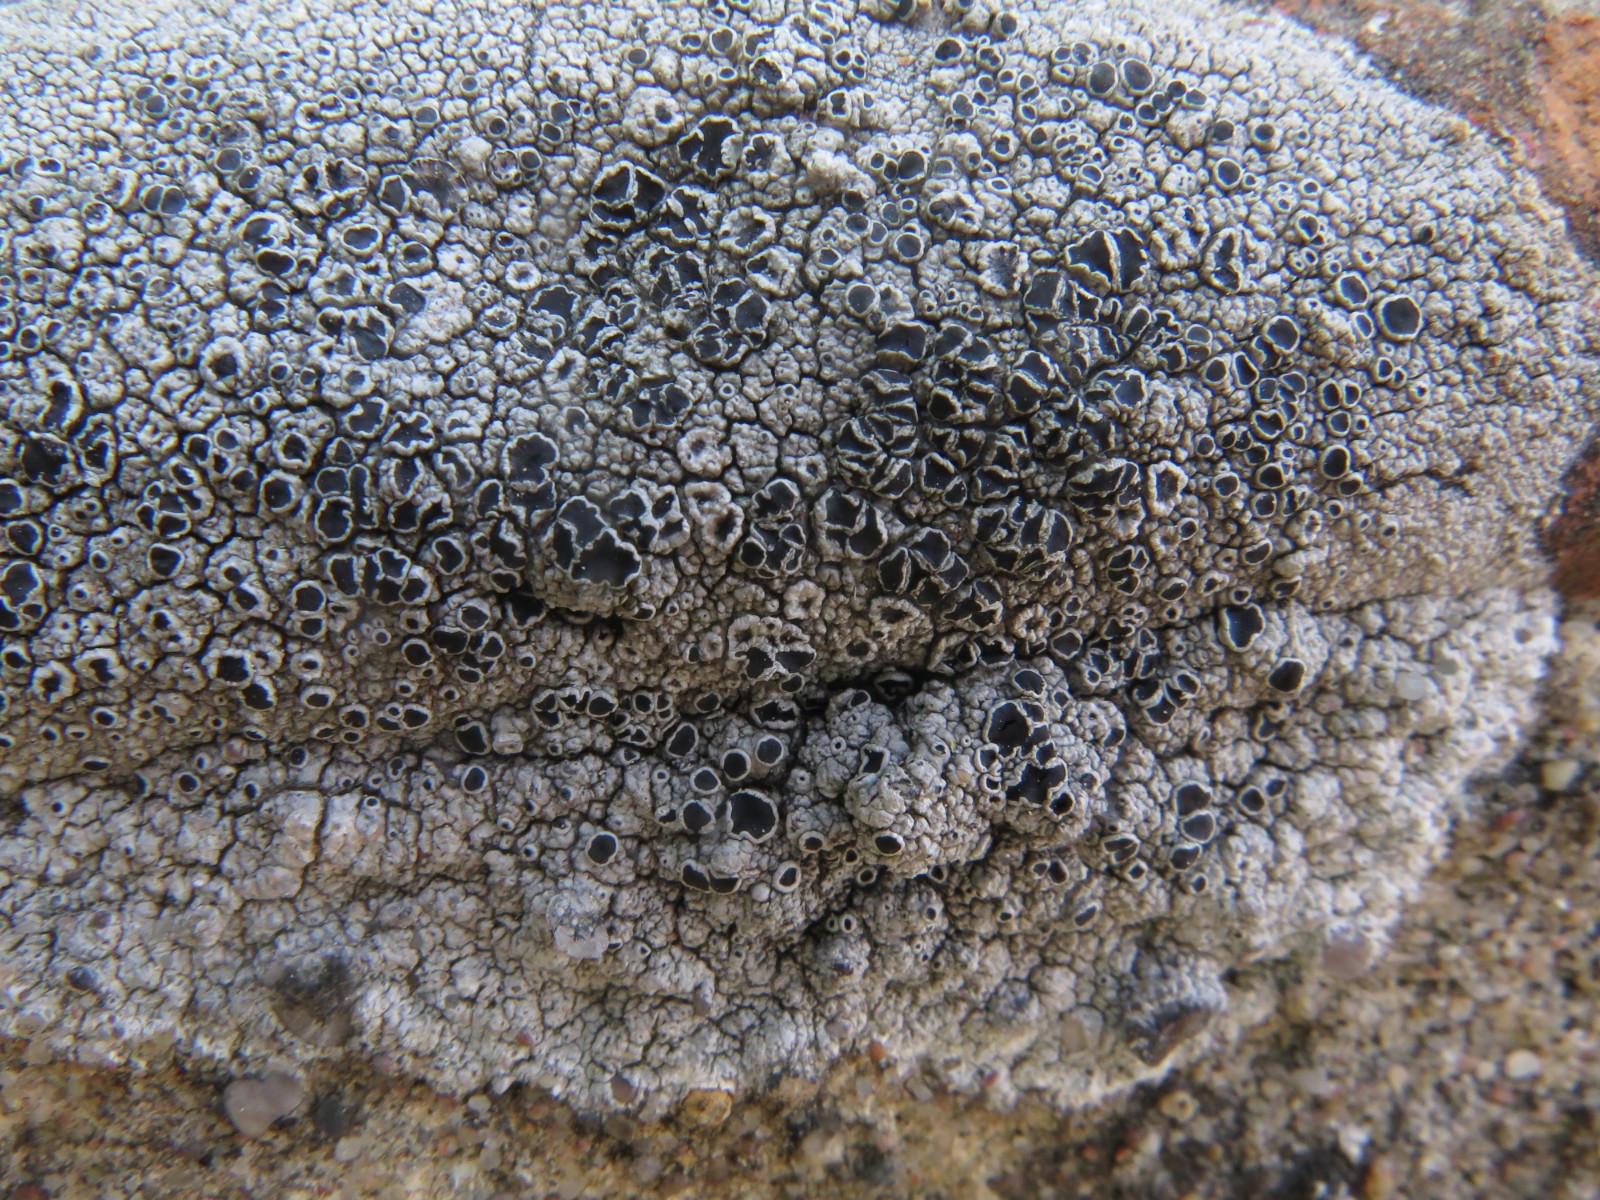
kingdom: Fungi
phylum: Ascomycota
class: Lecanoromycetes
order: Lecanorales
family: Tephromelataceae
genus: Tephromela
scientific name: Tephromela atra
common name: sortfrugtet kantskivelav
